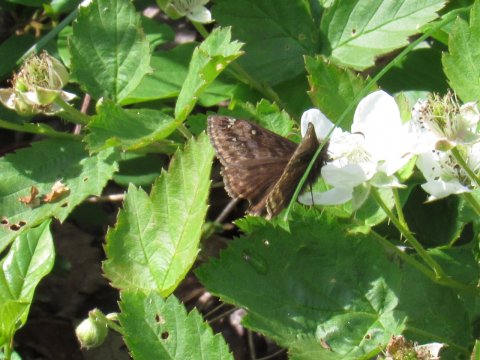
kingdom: Animalia
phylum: Arthropoda
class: Insecta
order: Lepidoptera
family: Hesperiidae
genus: Gesta
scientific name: Gesta
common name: Juvenal's Duskywing
